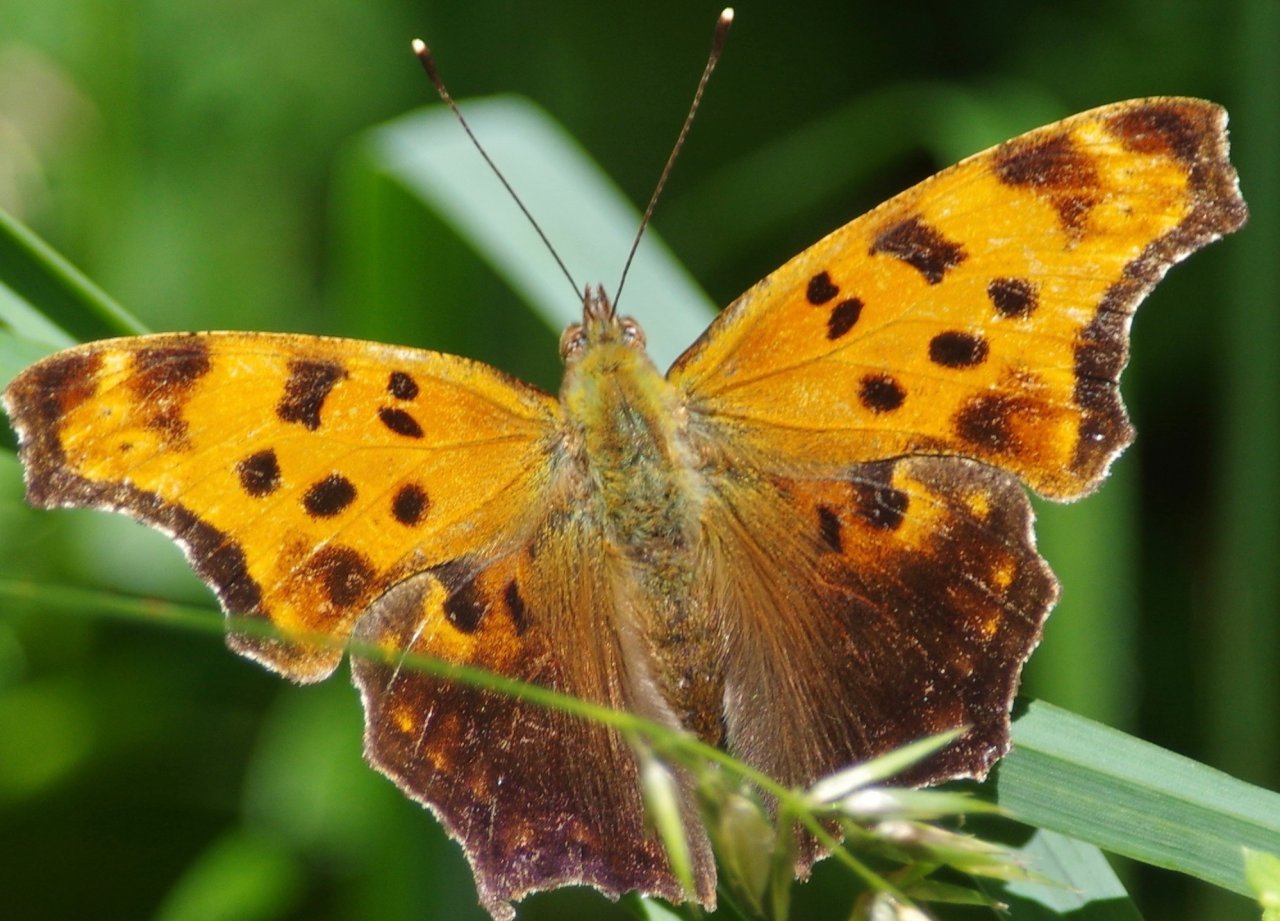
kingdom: Animalia
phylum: Arthropoda
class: Insecta
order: Lepidoptera
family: Nymphalidae
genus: Polygonia
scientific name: Polygonia comma
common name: Eastern Comma
